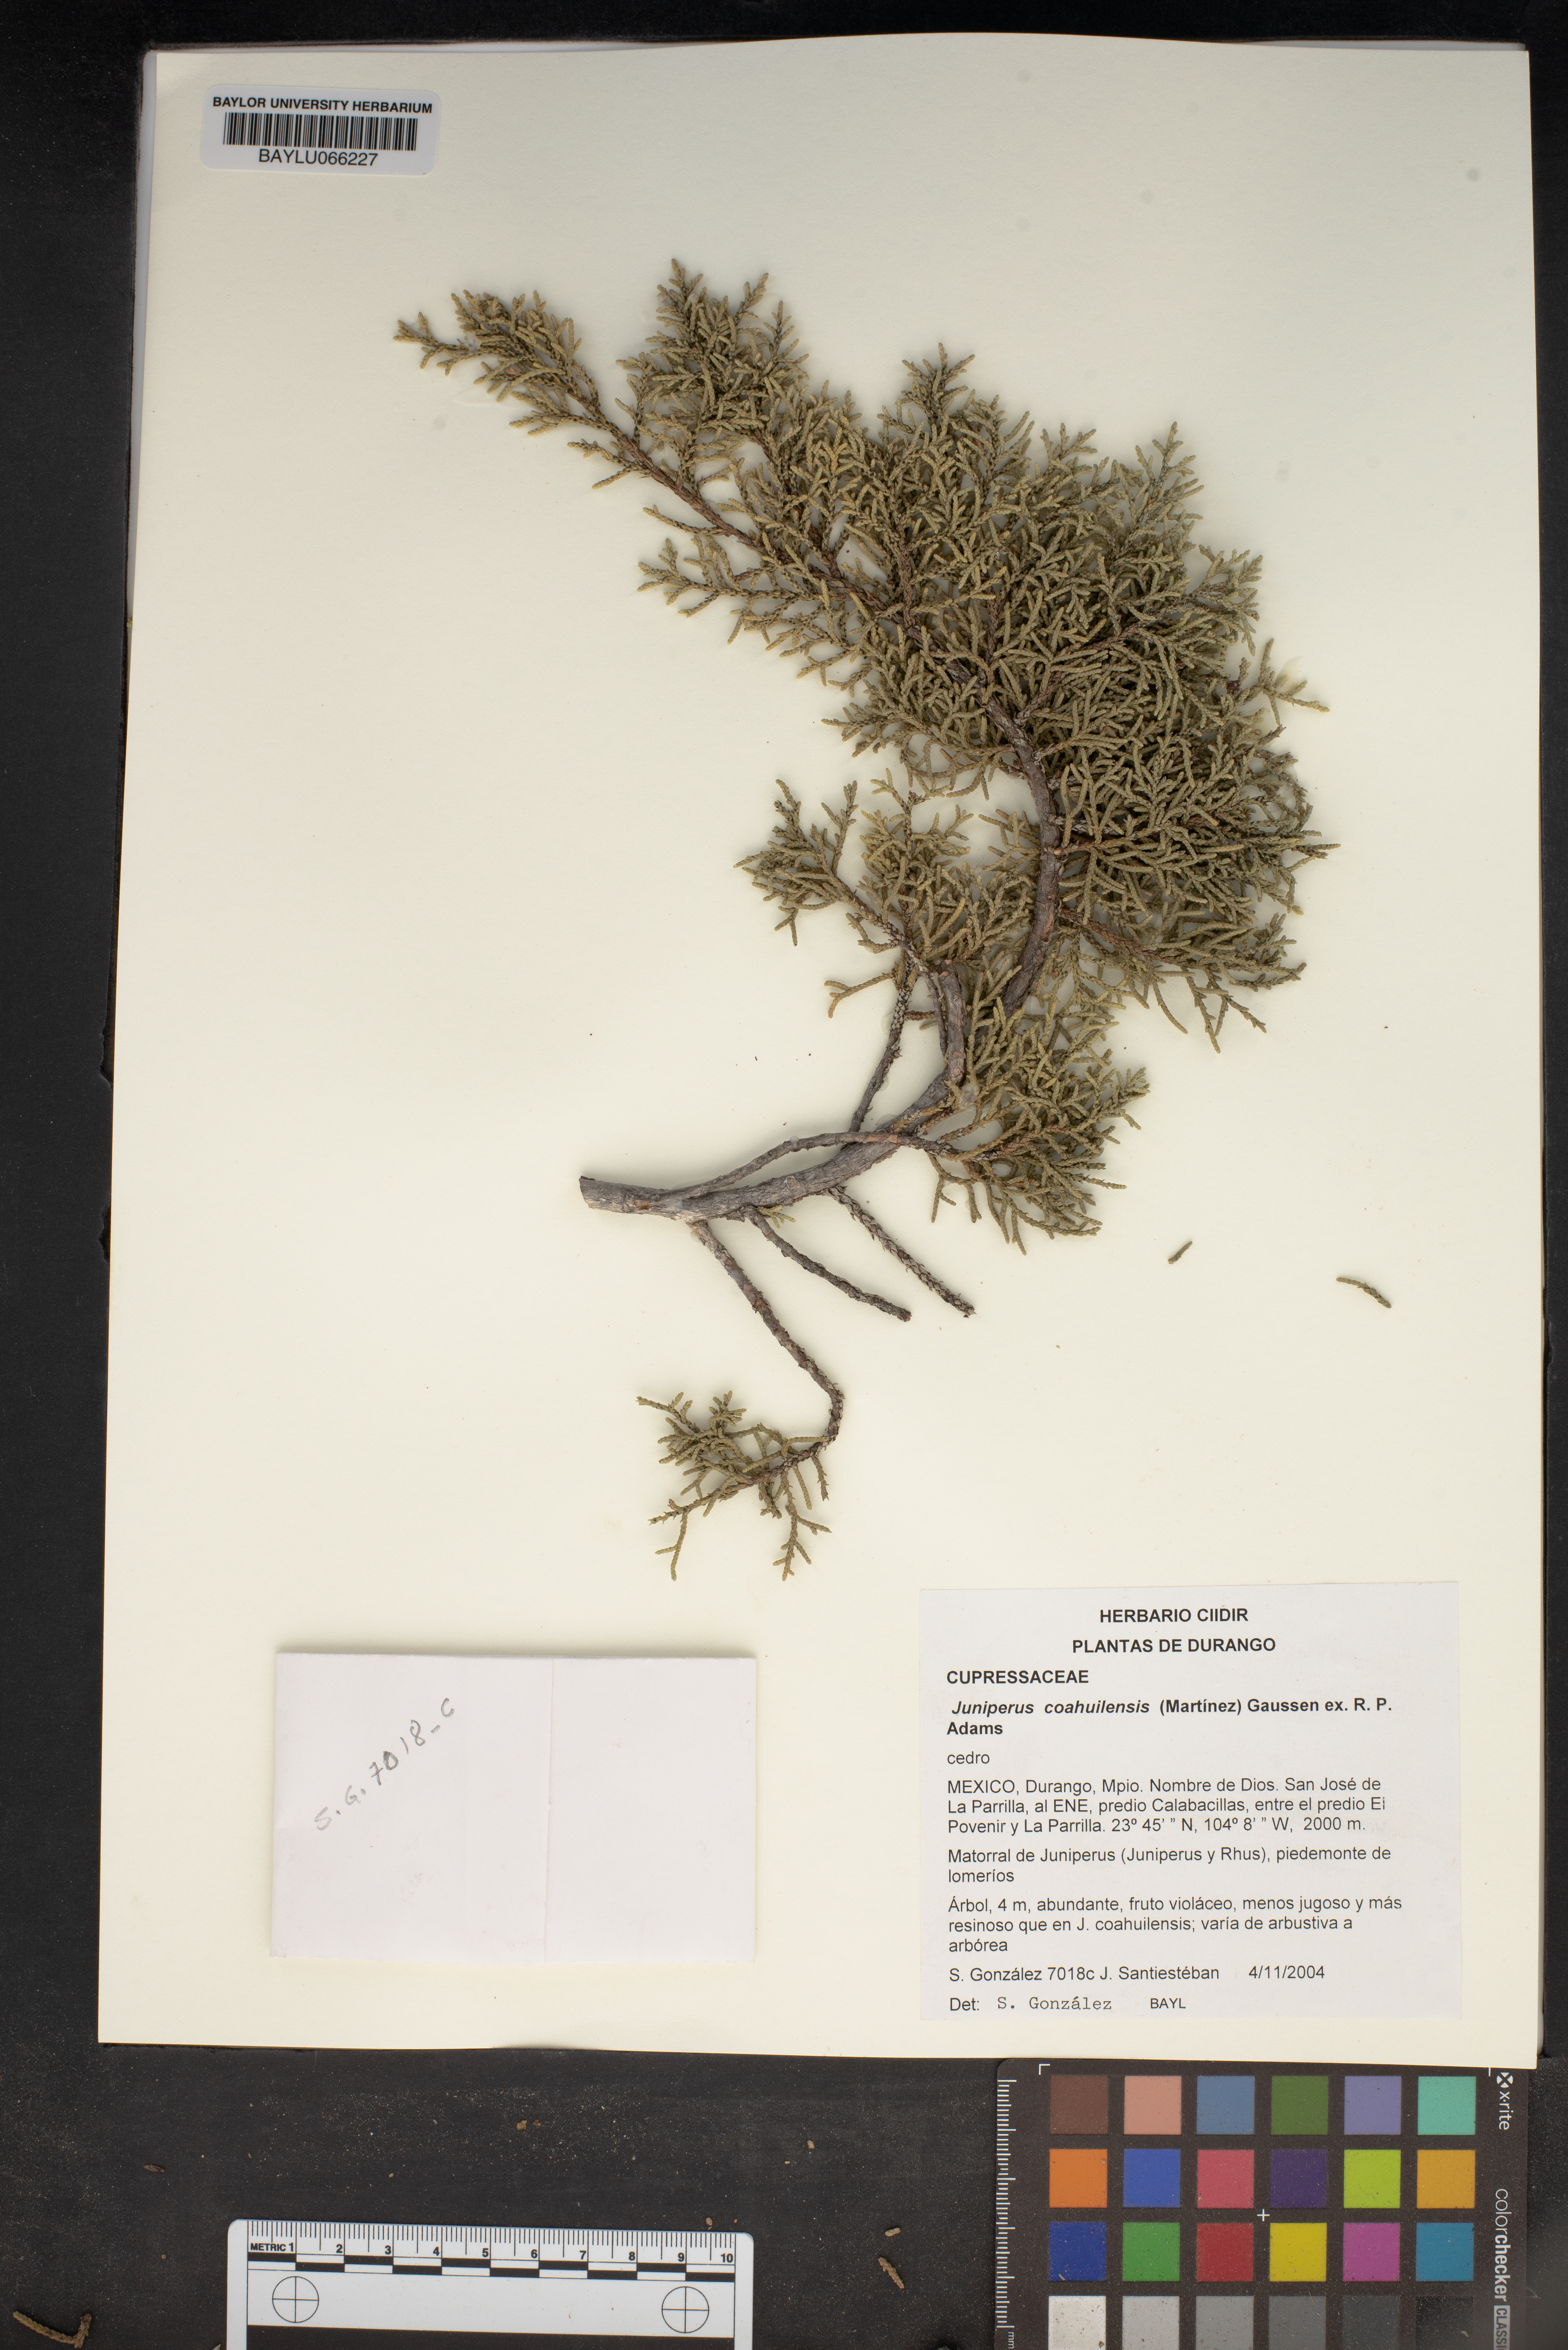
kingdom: Plantae
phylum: Tracheophyta
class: Pinopsida
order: Pinales
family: Cupressaceae
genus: Juniperus
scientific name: Juniperus coahuilensis
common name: Roseberry
